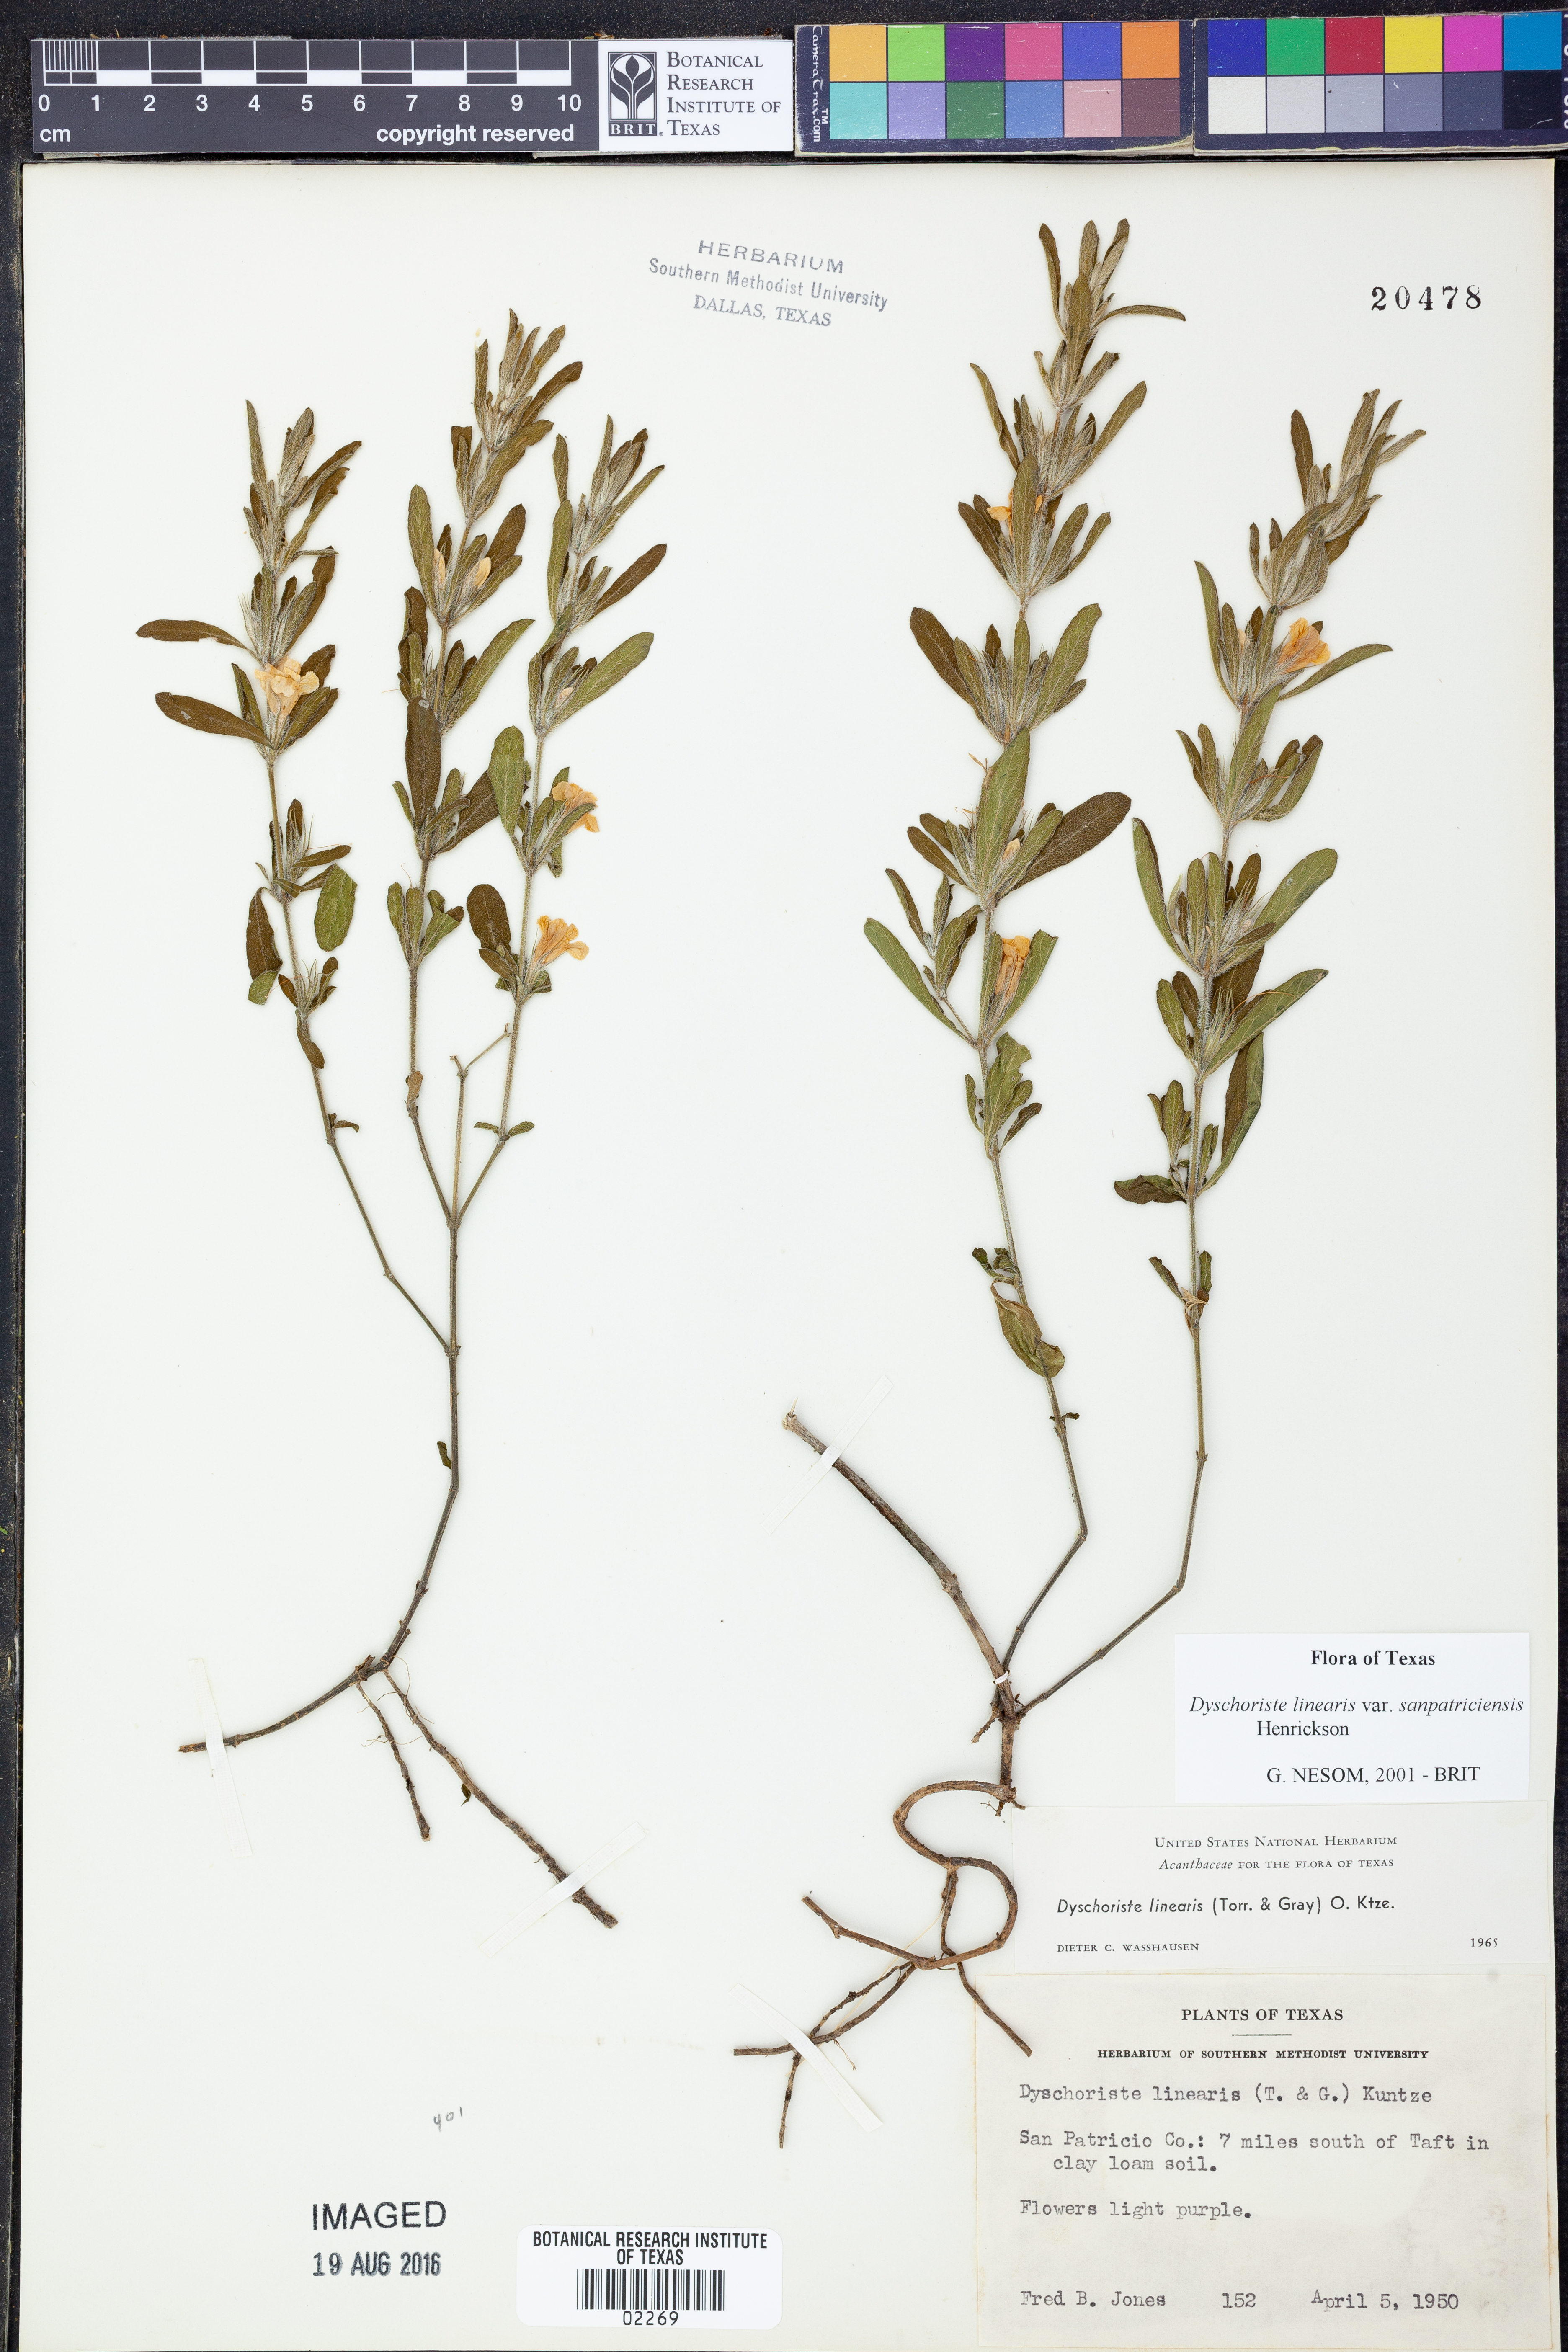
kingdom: Plantae
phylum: Tracheophyta
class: Magnoliopsida
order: Lamiales
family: Acanthaceae
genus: Dyschoriste
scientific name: Dyschoriste linearis
